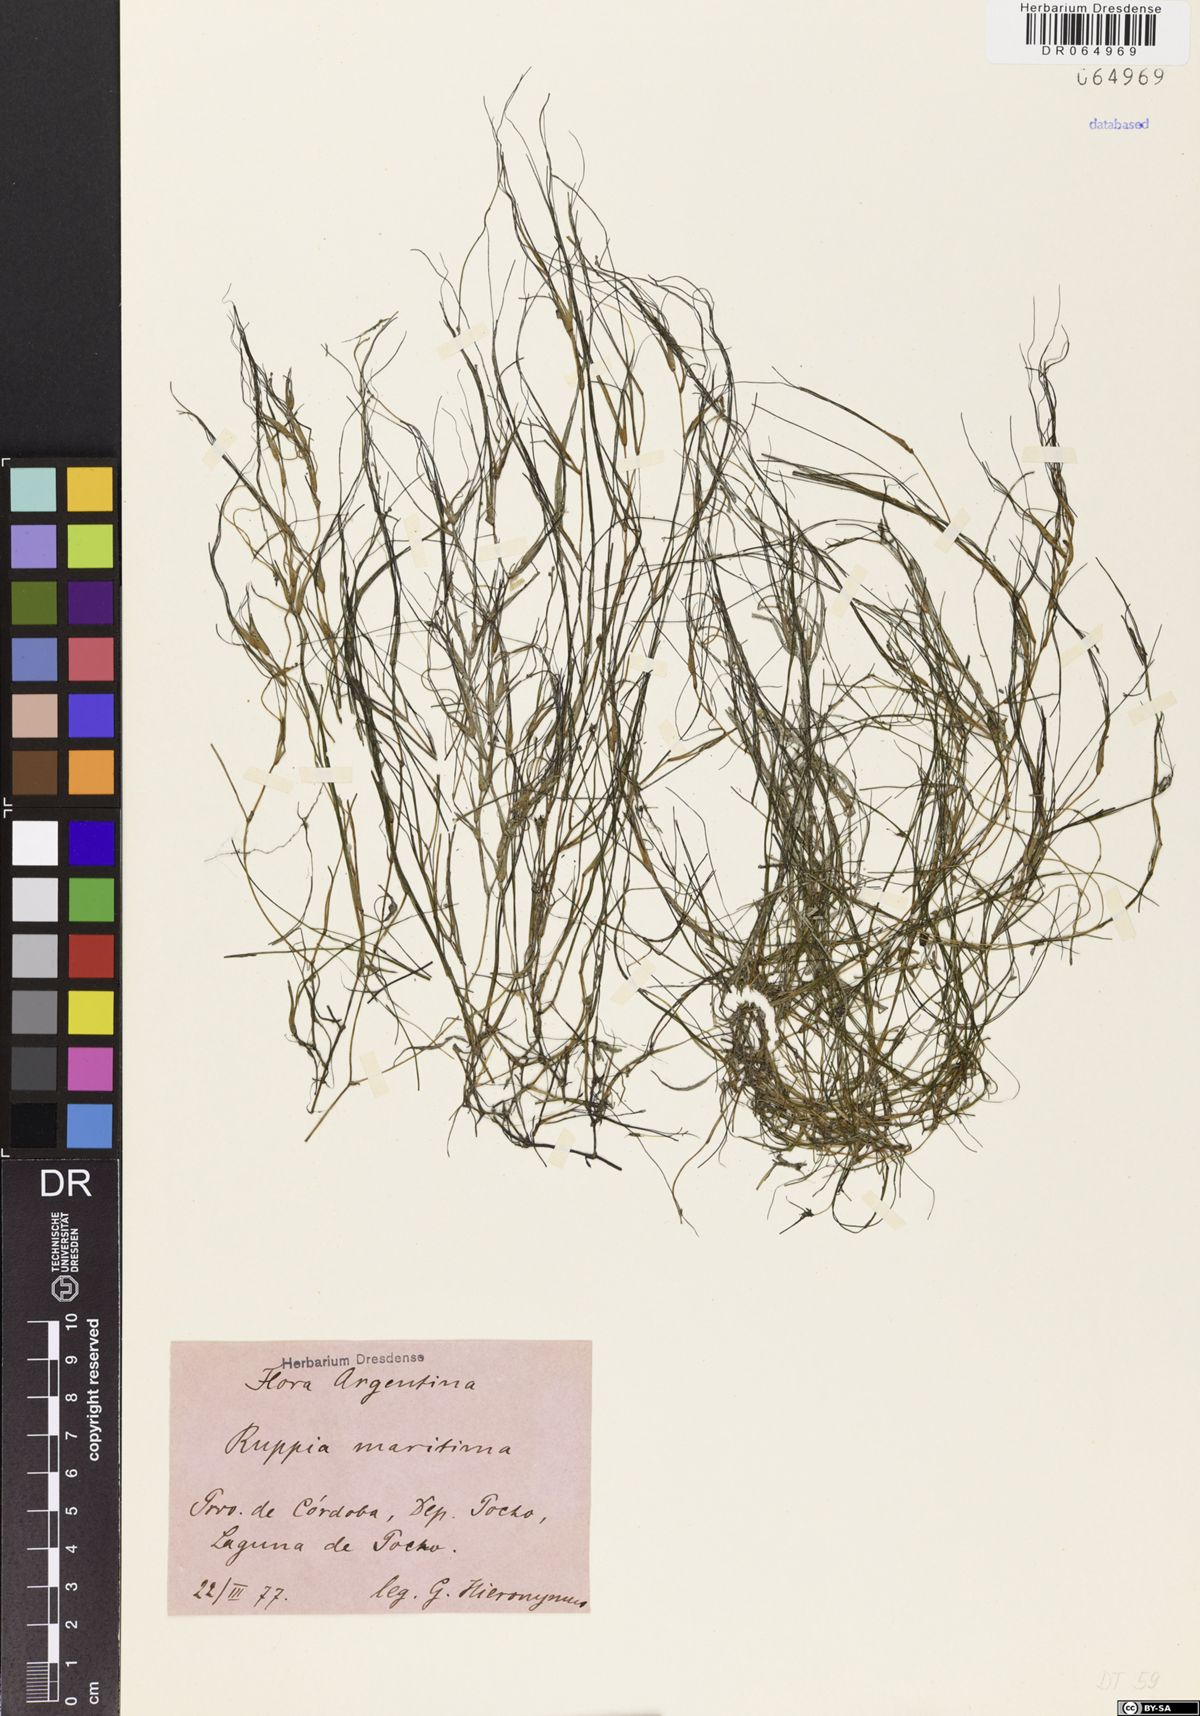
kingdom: Plantae
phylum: Tracheophyta
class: Liliopsida
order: Alismatales
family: Ruppiaceae
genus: Ruppia
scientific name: Ruppia maritima
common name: Beaked tasselweed
